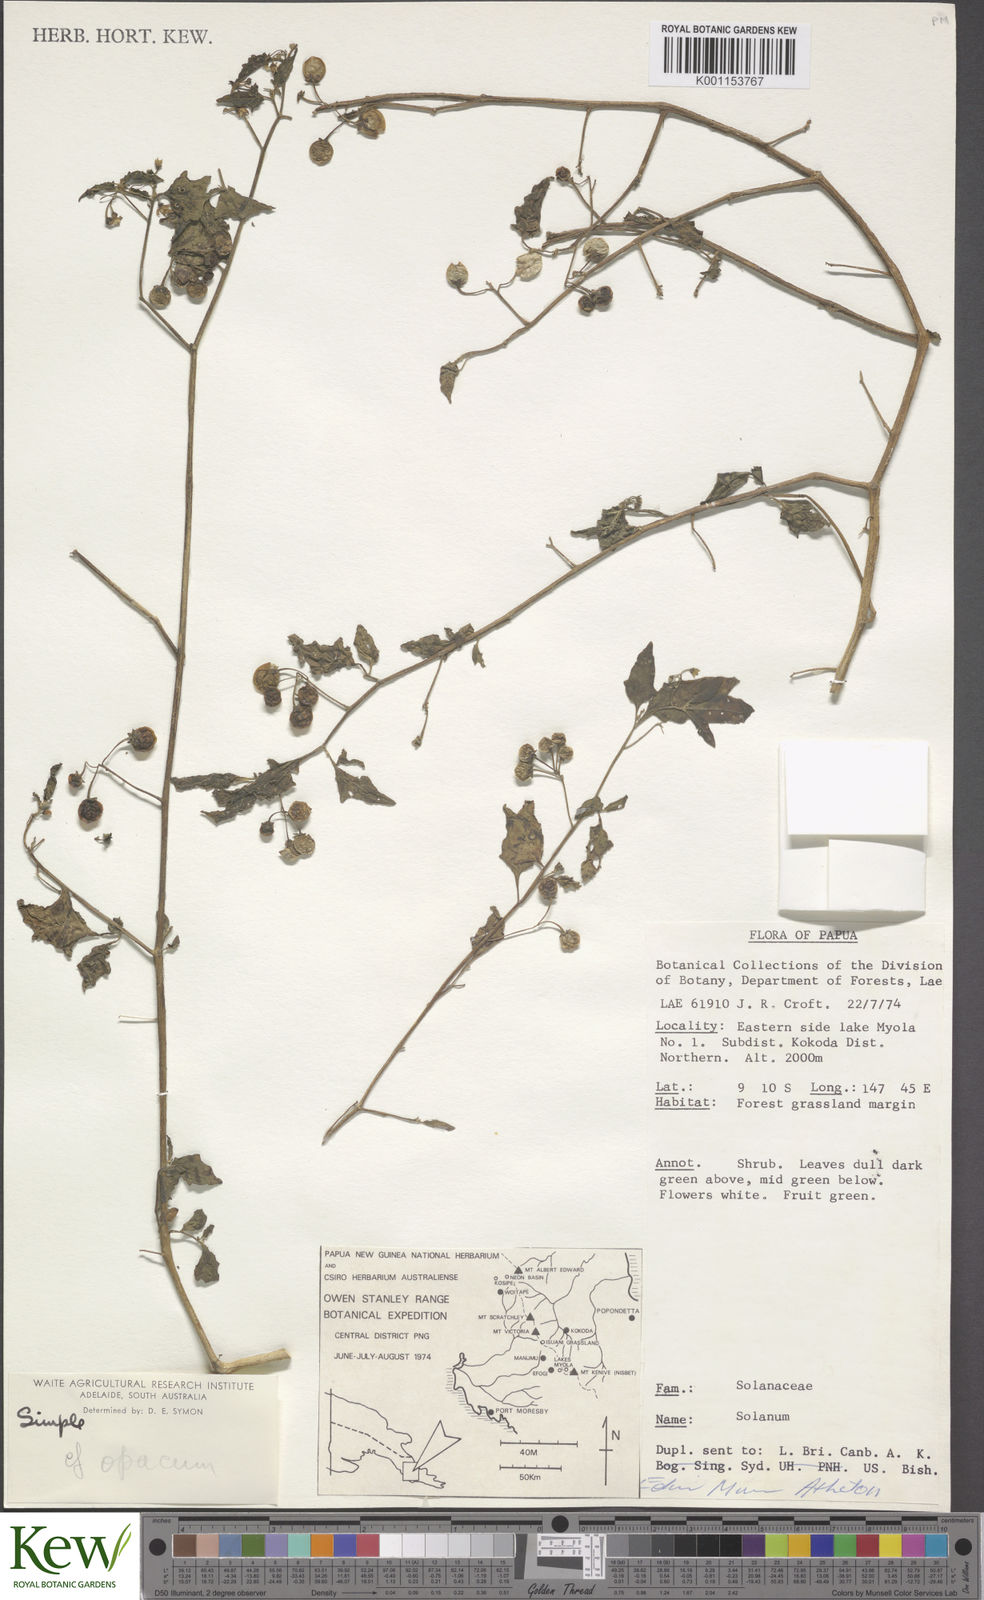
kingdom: Plantae
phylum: Tracheophyta
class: Magnoliopsida
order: Solanales
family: Solanaceae
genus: Solanum
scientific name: Solanum nigrum
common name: Black nightshade
